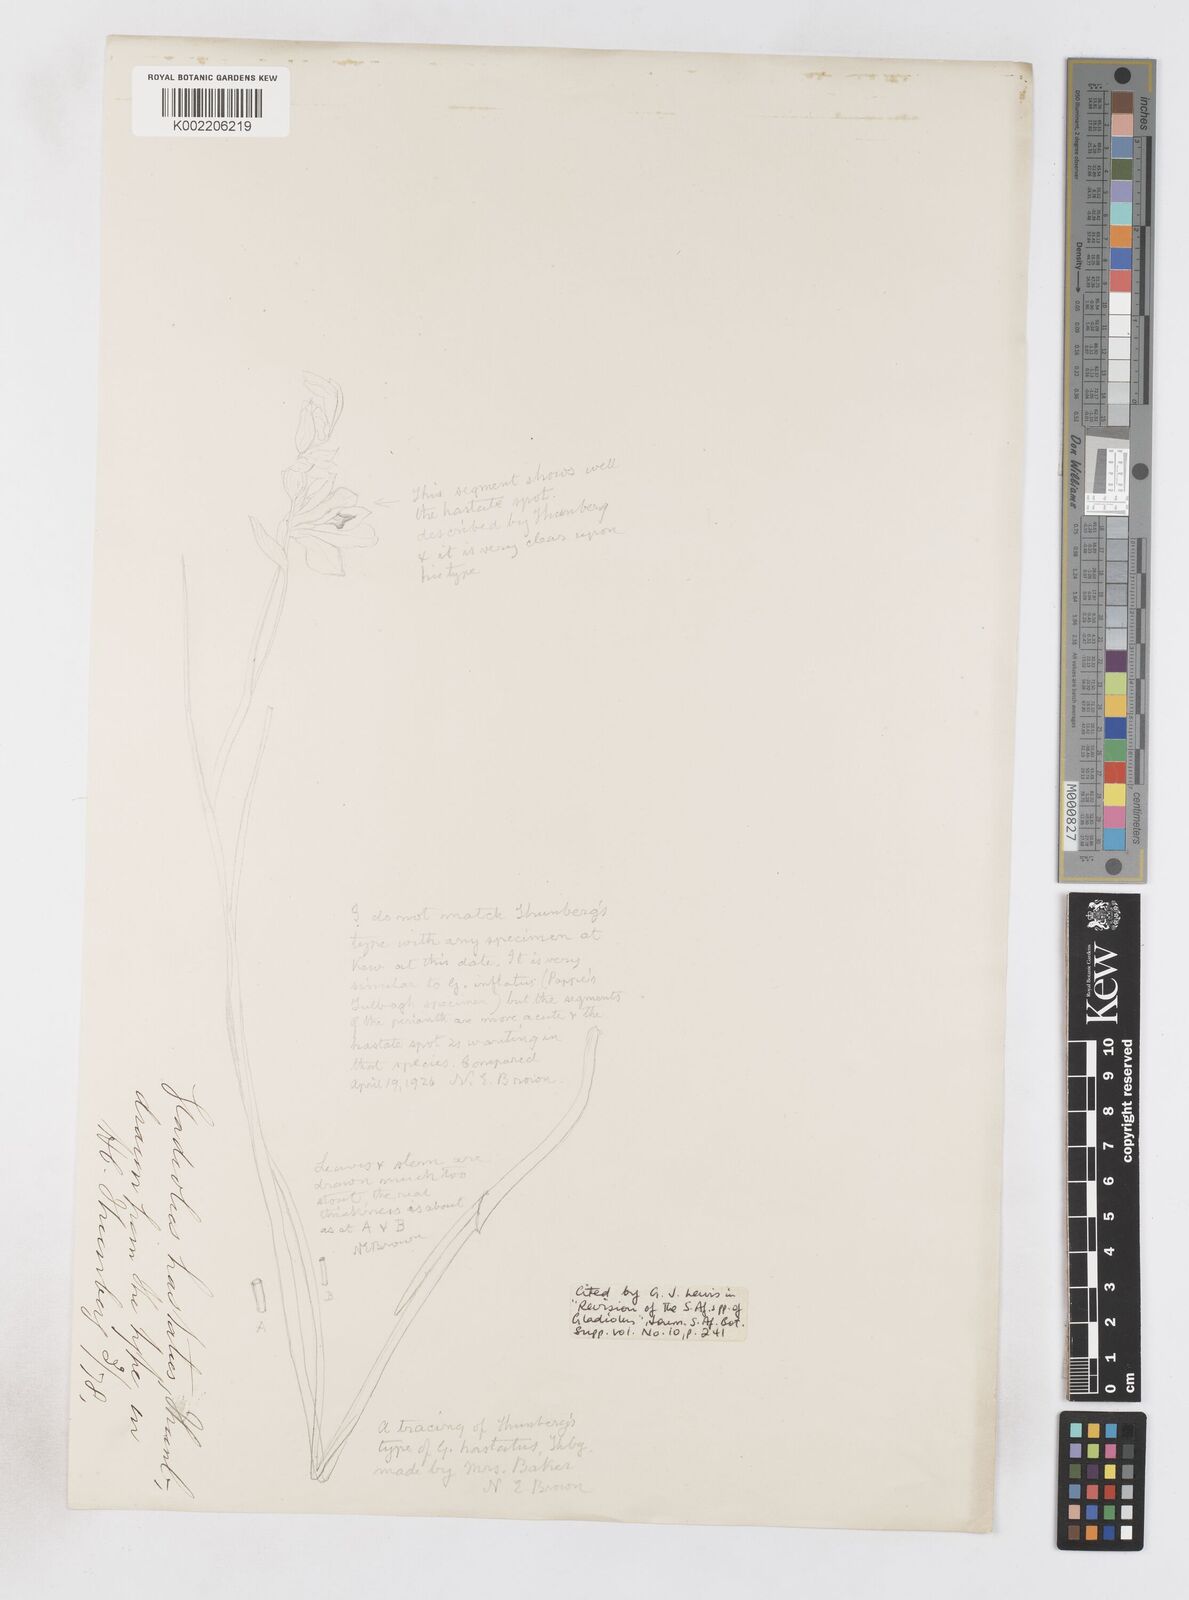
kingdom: Plantae
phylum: Tracheophyta
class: Liliopsida
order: Asparagales
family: Iridaceae
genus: Gladiolus
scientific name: Gladiolus inflatus
